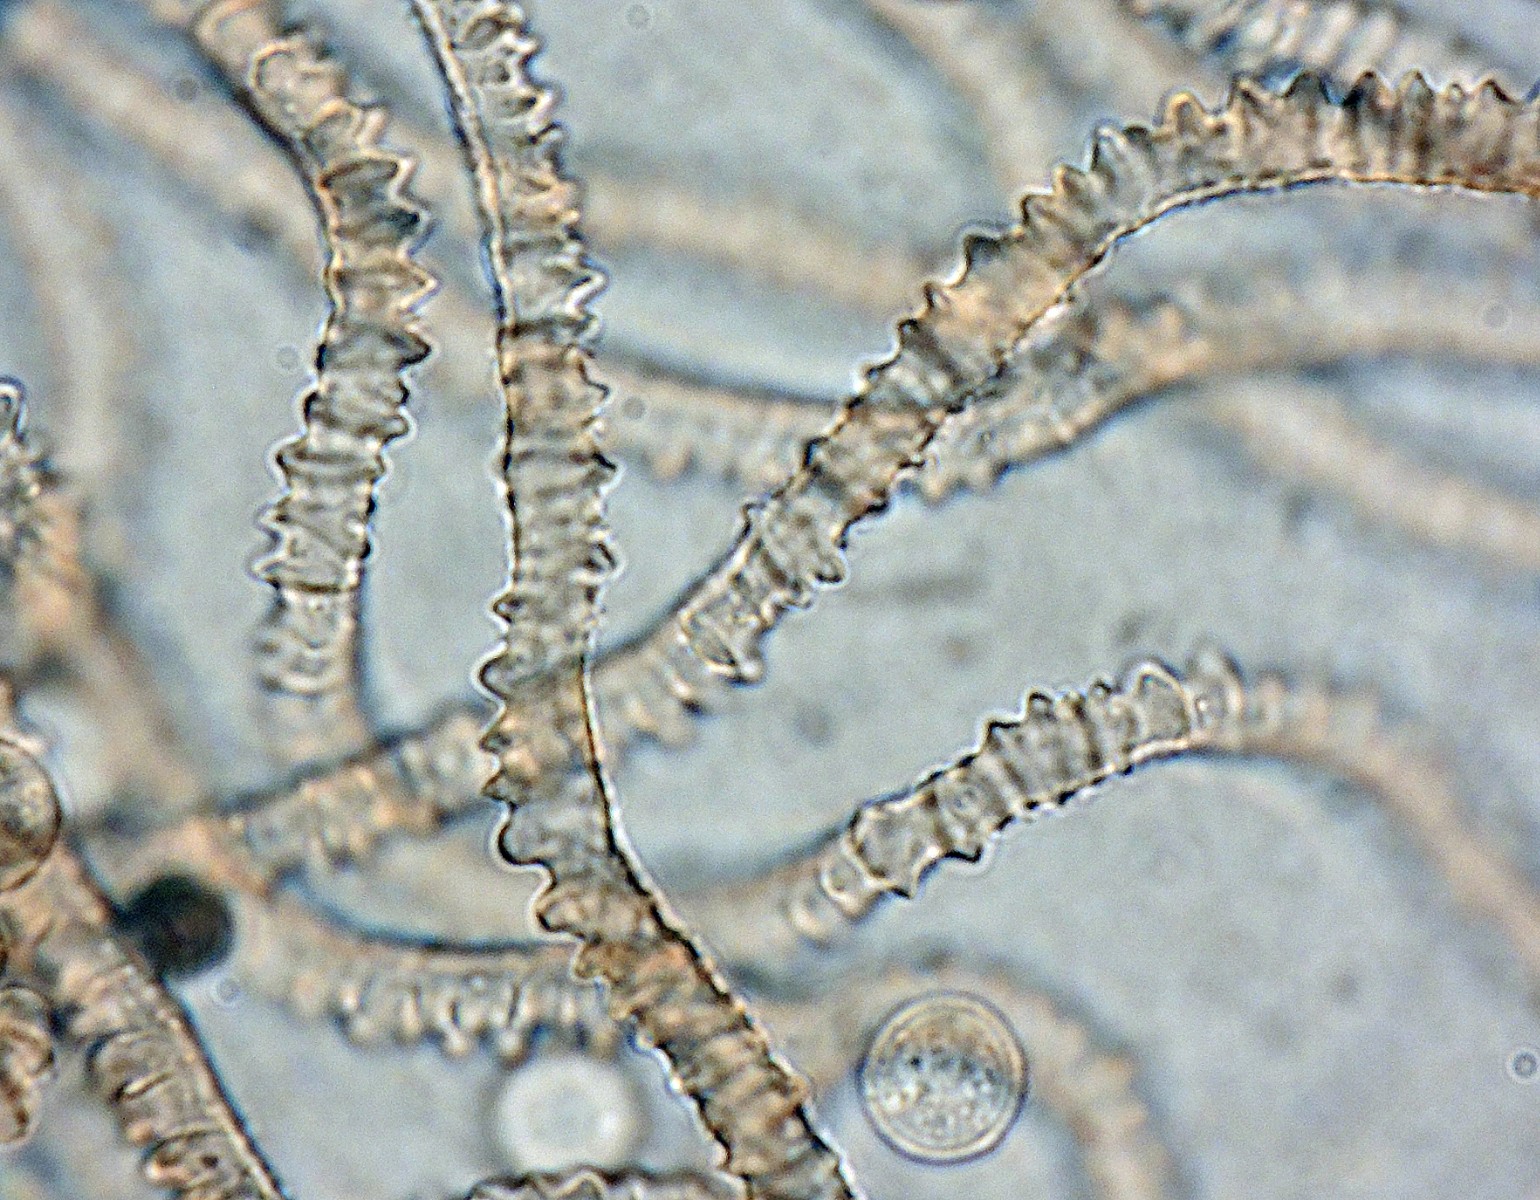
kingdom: Protozoa
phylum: Mycetozoa
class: Myxomycetes
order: Trichiales
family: Arcyriaceae
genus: Arcyria
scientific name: Arcyria incarnata
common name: rosa skålsvøb
